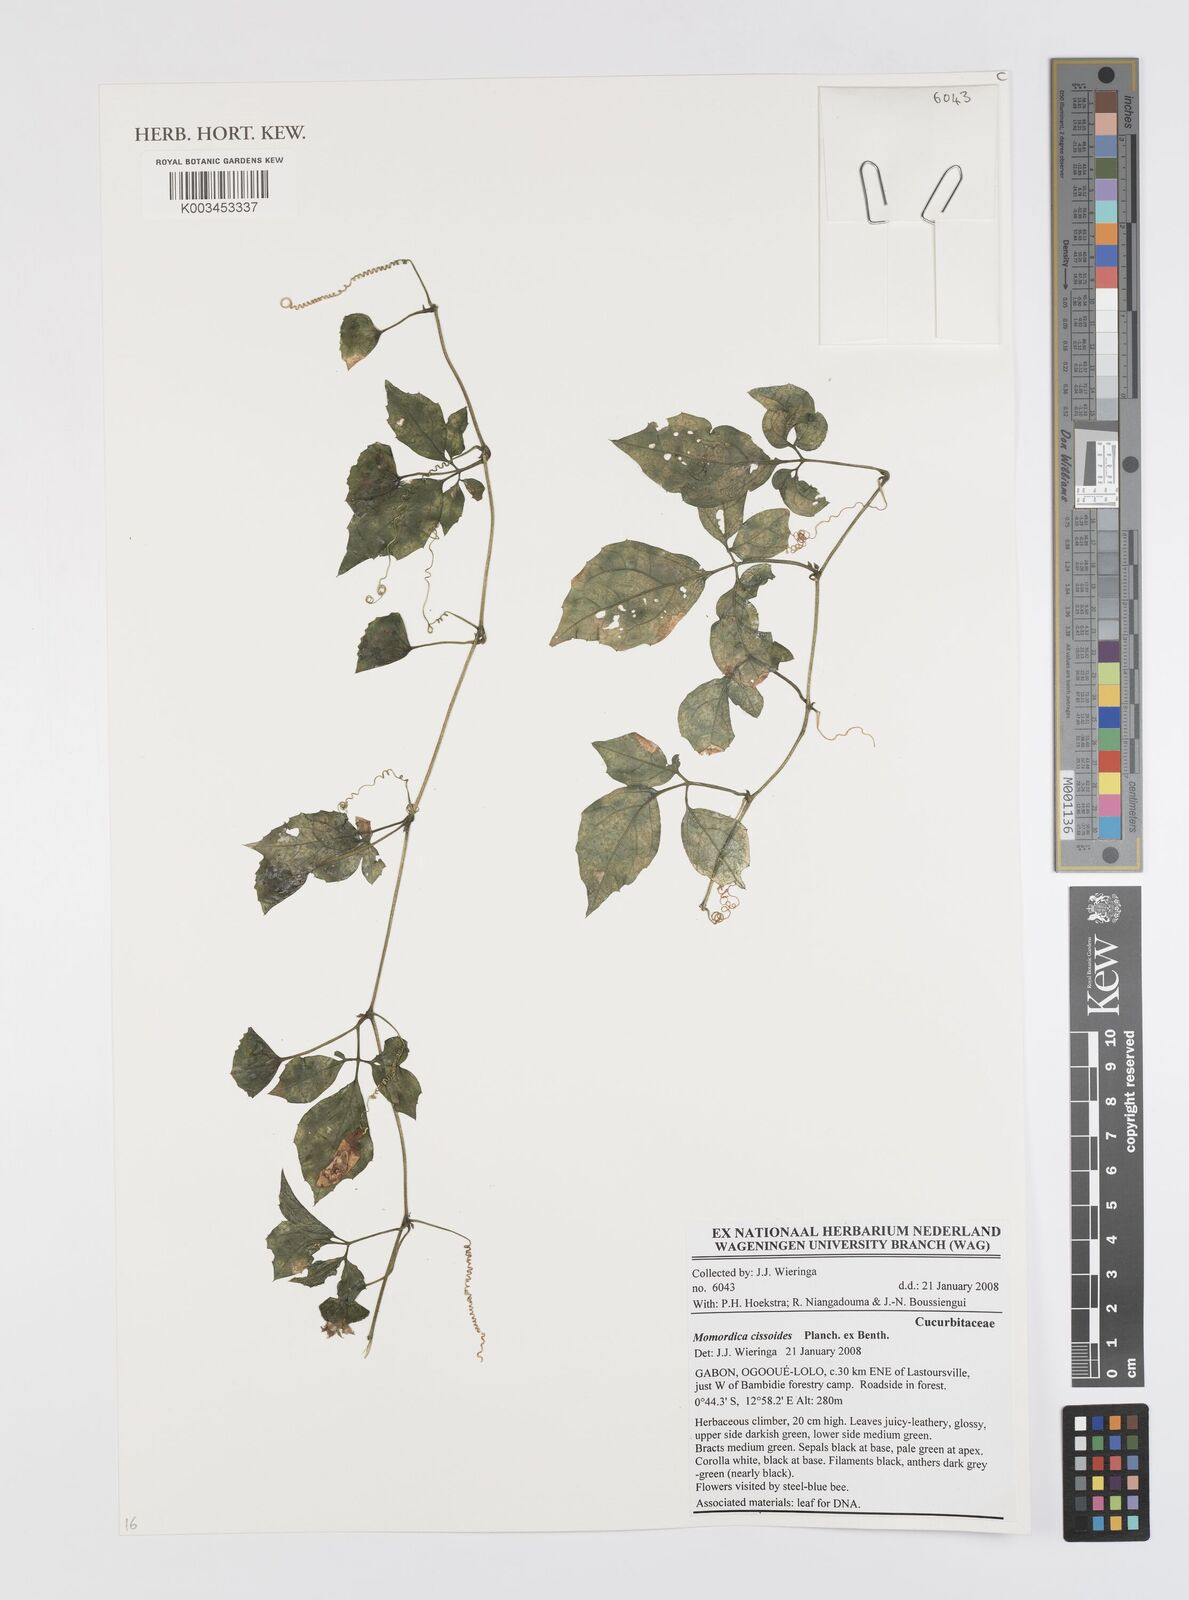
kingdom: Plantae
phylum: Tracheophyta
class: Magnoliopsida
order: Cucurbitales
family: Cucurbitaceae
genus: Momordica
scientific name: Momordica cissoides
